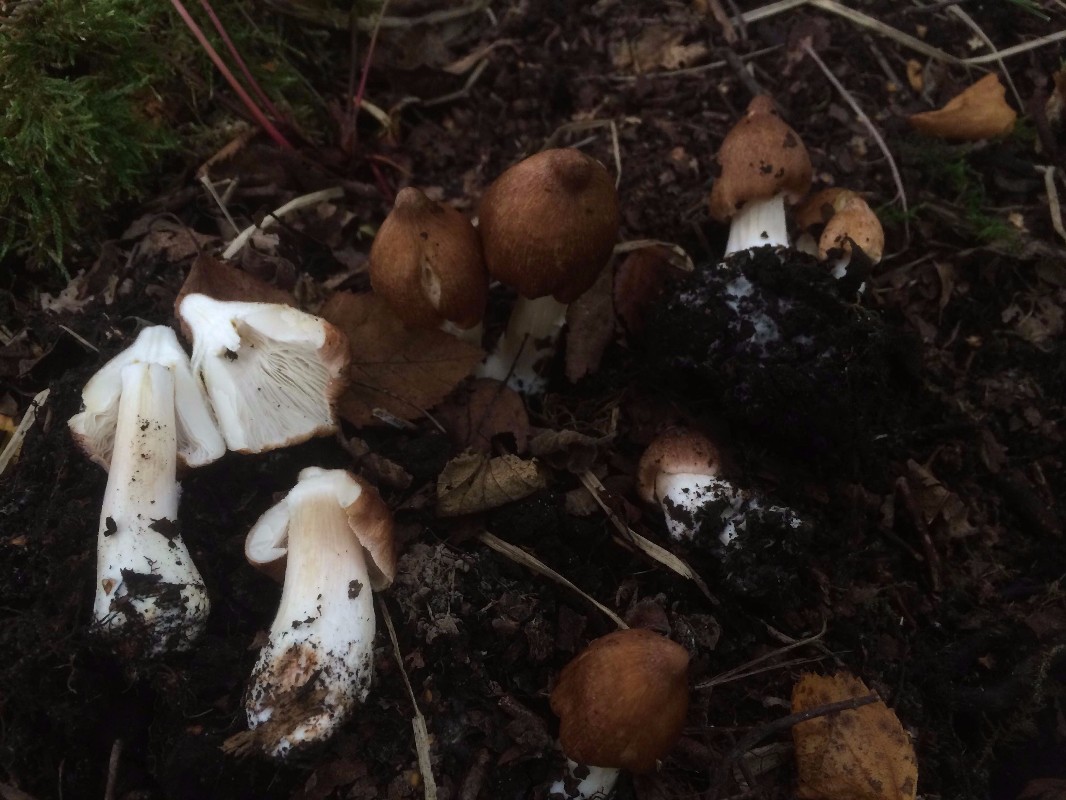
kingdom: Fungi
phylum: Basidiomycota
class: Agaricomycetes
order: Agaricales
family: Inocybaceae
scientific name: Inocybaceae
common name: trævlhatfamilien
